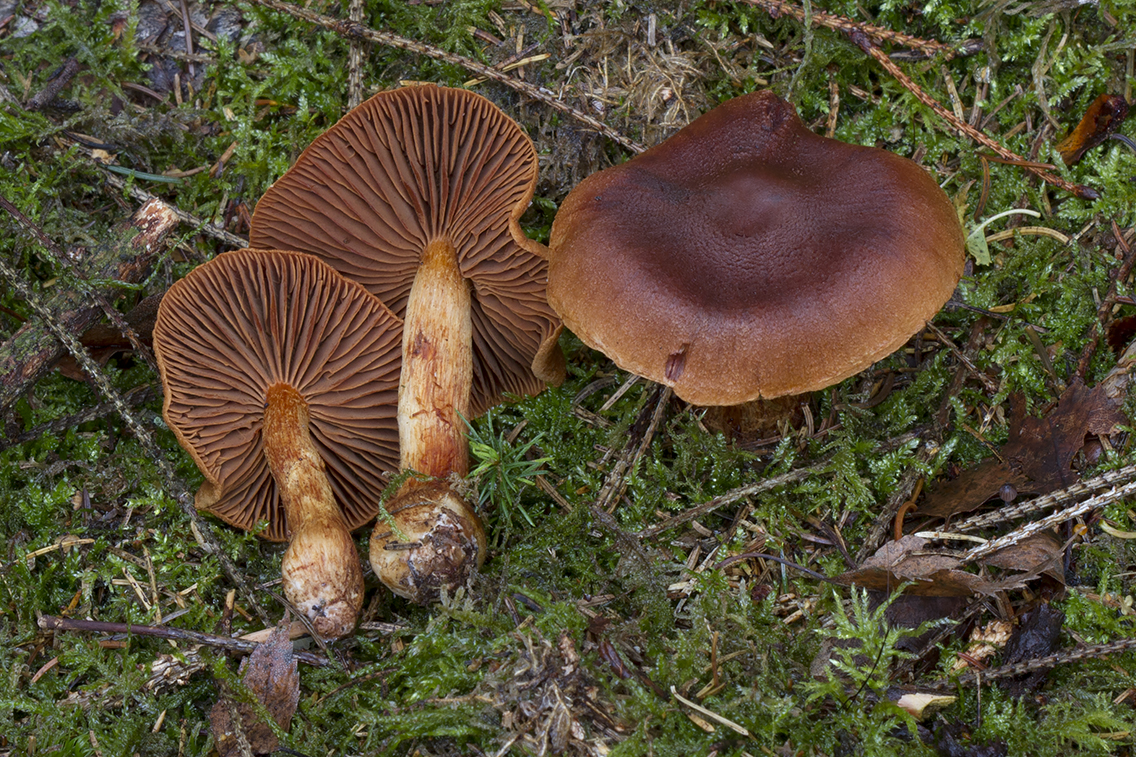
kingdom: Fungi
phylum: Basidiomycota
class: Agaricomycetes
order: Agaricales
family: Cortinariaceae
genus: Cortinarius
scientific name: Cortinarius rubellus
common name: puklet gift-slørhat
